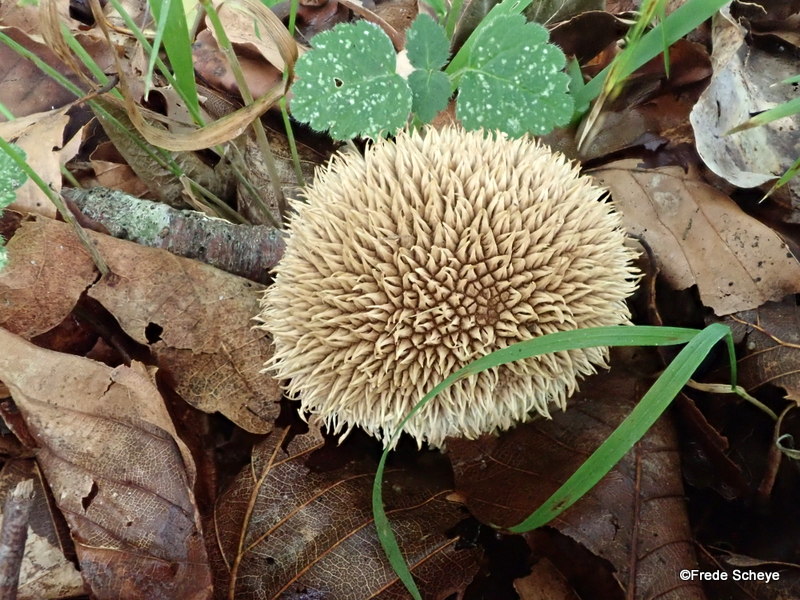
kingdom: Fungi
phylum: Basidiomycota
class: Agaricomycetes
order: Agaricales
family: Lycoperdaceae
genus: Lycoperdon
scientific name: Lycoperdon echinatum
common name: pindsvine-støvbold
